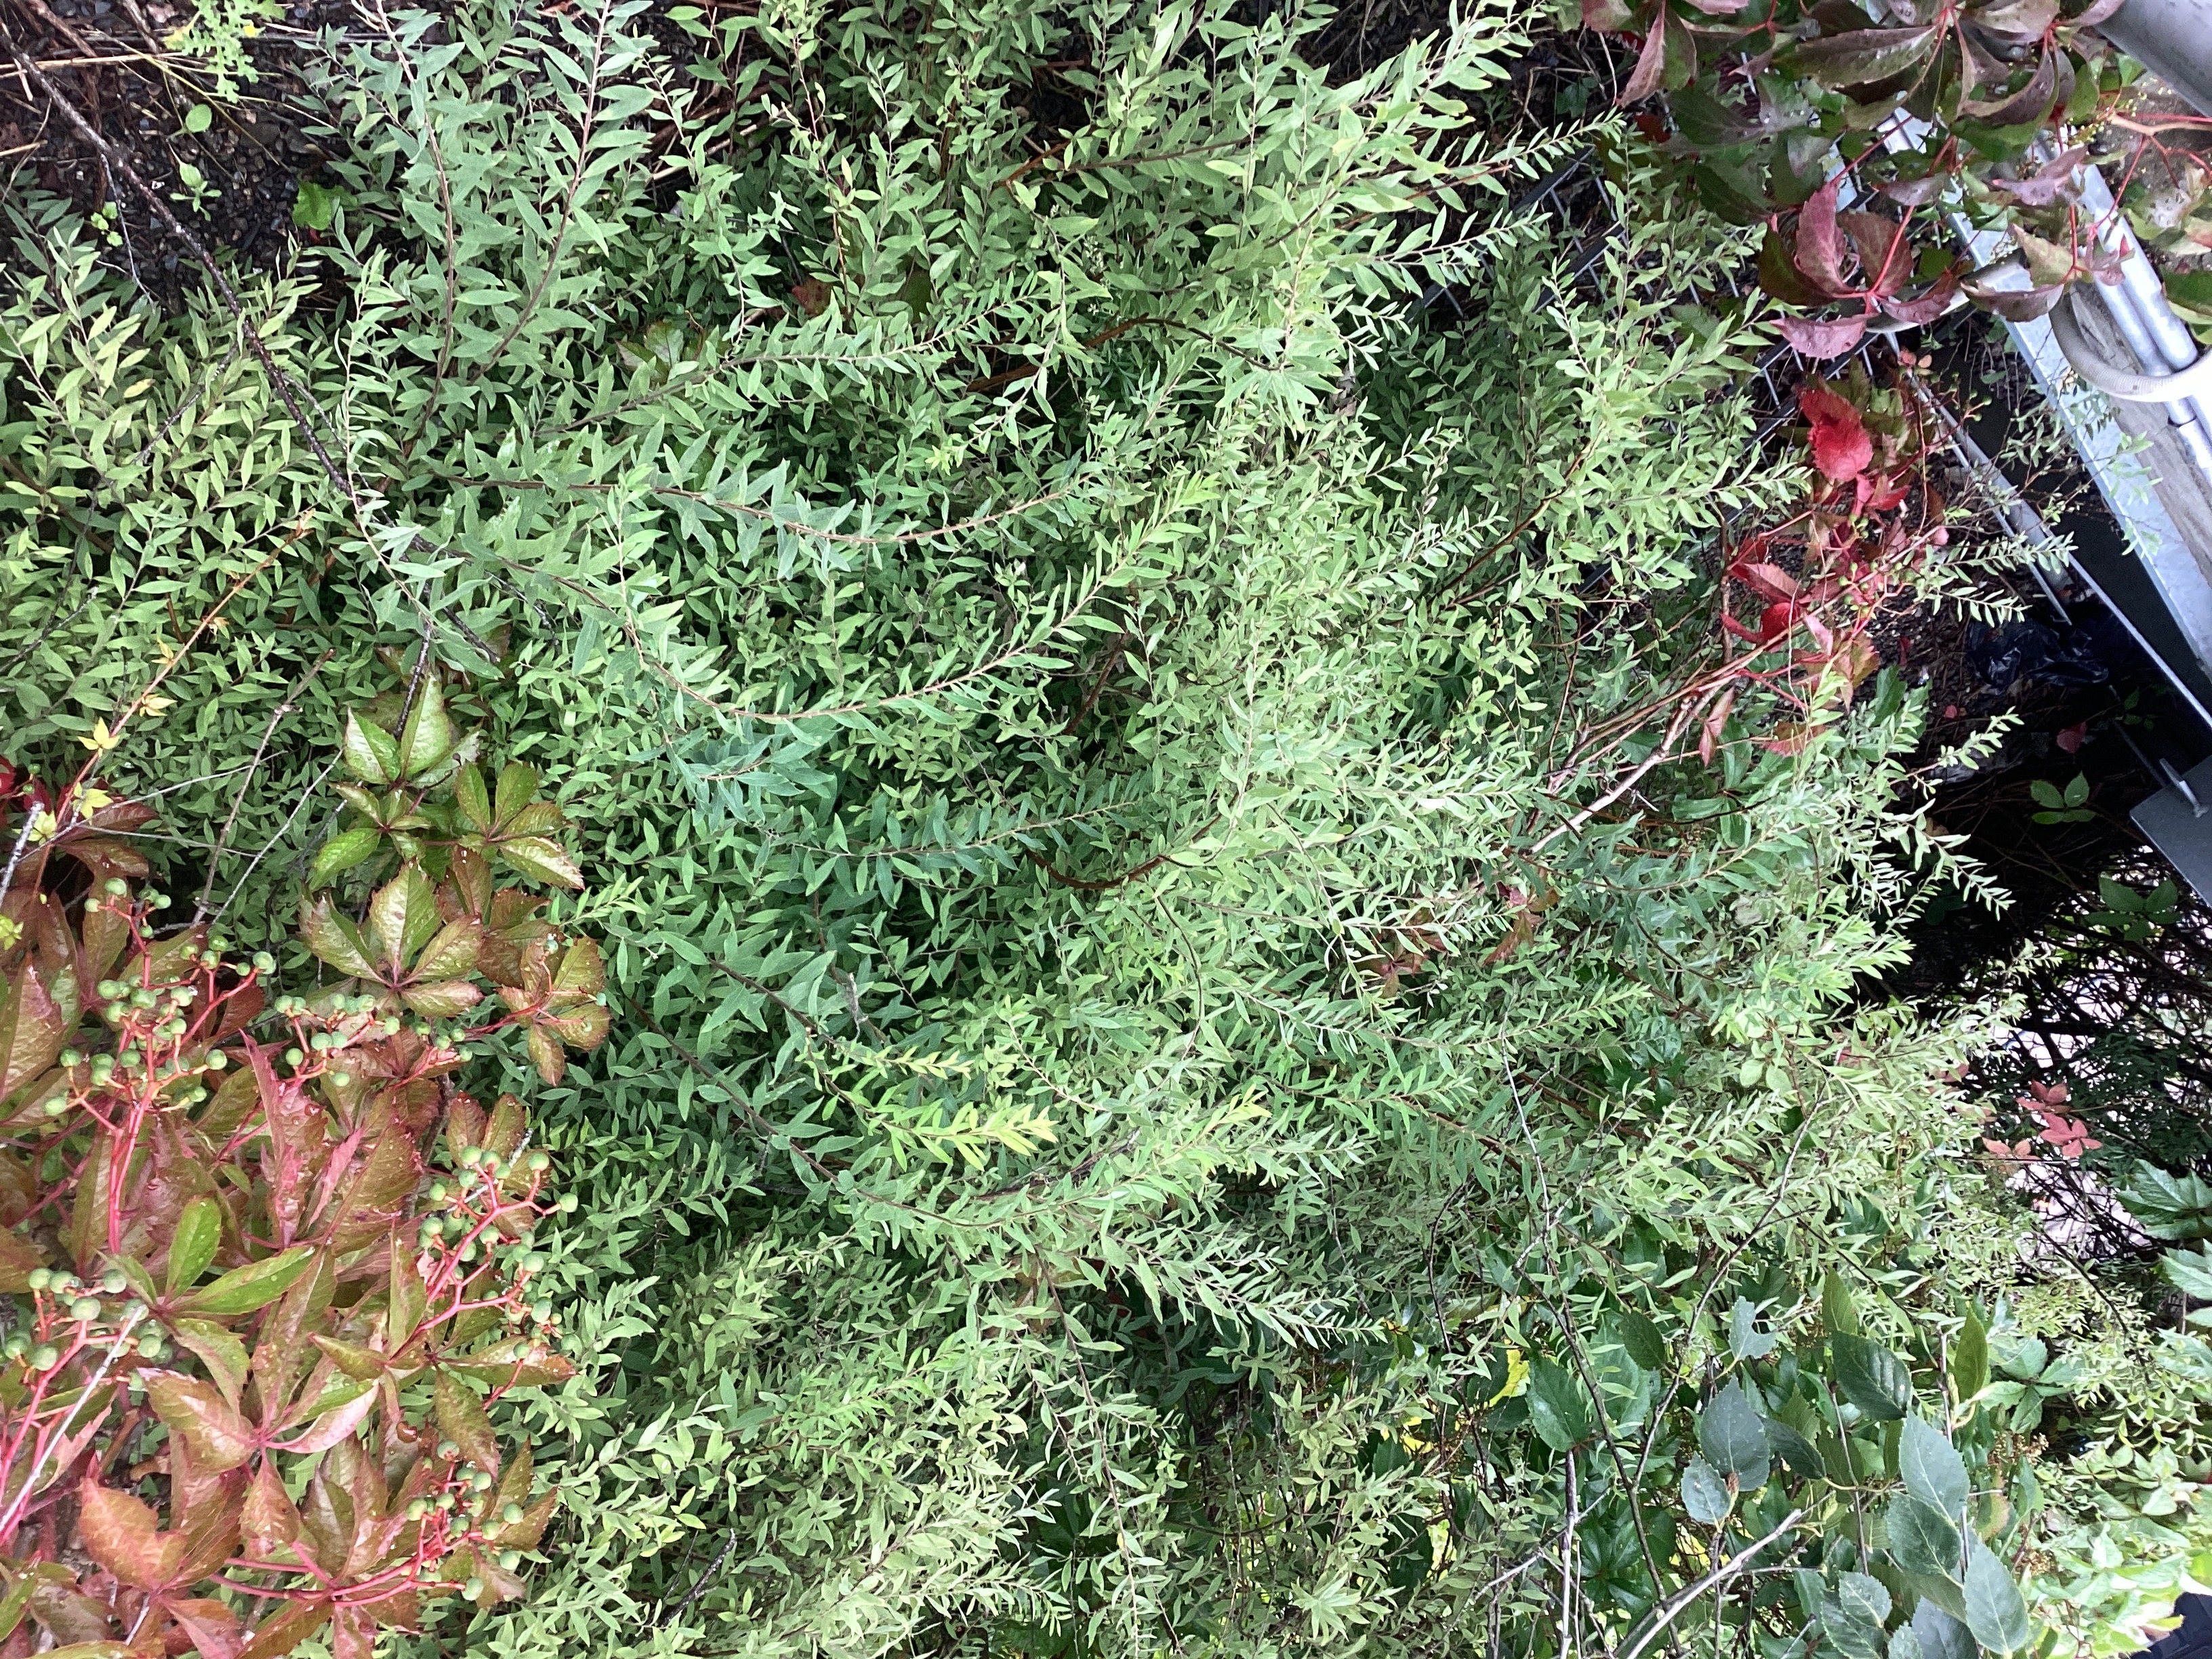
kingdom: Plantae
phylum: Tracheophyta
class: Magnoliopsida
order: Rosales
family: Rosaceae
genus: Spiraea
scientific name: Spiraea cinerea
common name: gråspirea
